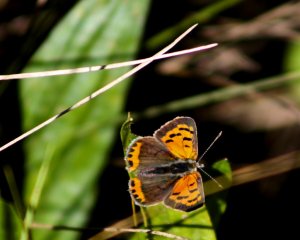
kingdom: Animalia
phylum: Arthropoda
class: Insecta
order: Lepidoptera
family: Lycaenidae
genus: Lycaena
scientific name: Lycaena phlaeas
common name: American Copper
